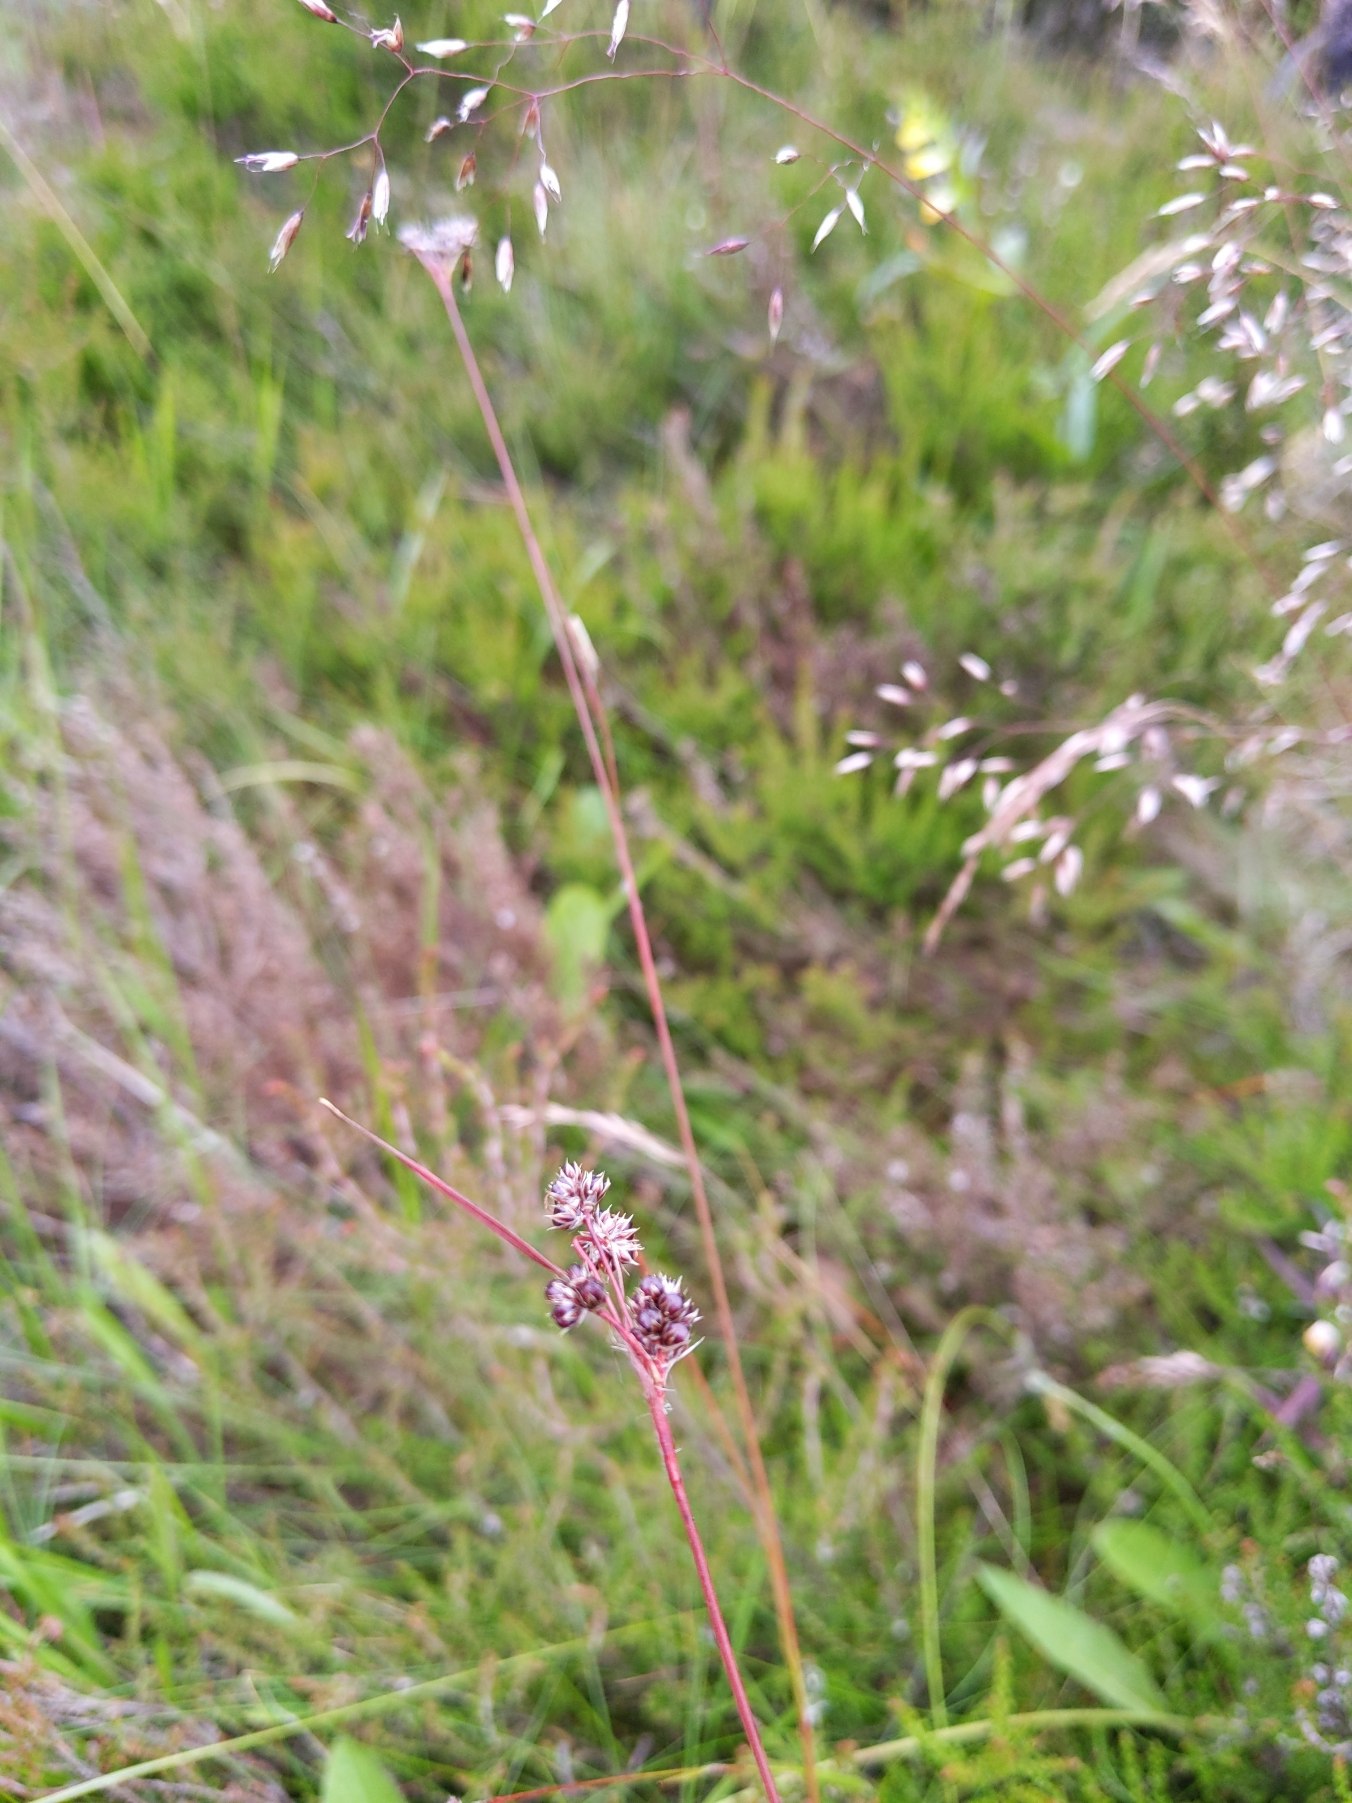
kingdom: Plantae
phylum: Tracheophyta
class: Liliopsida
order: Poales
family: Juncaceae
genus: Luzula
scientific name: Luzula campestris
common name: Mark-frytle
